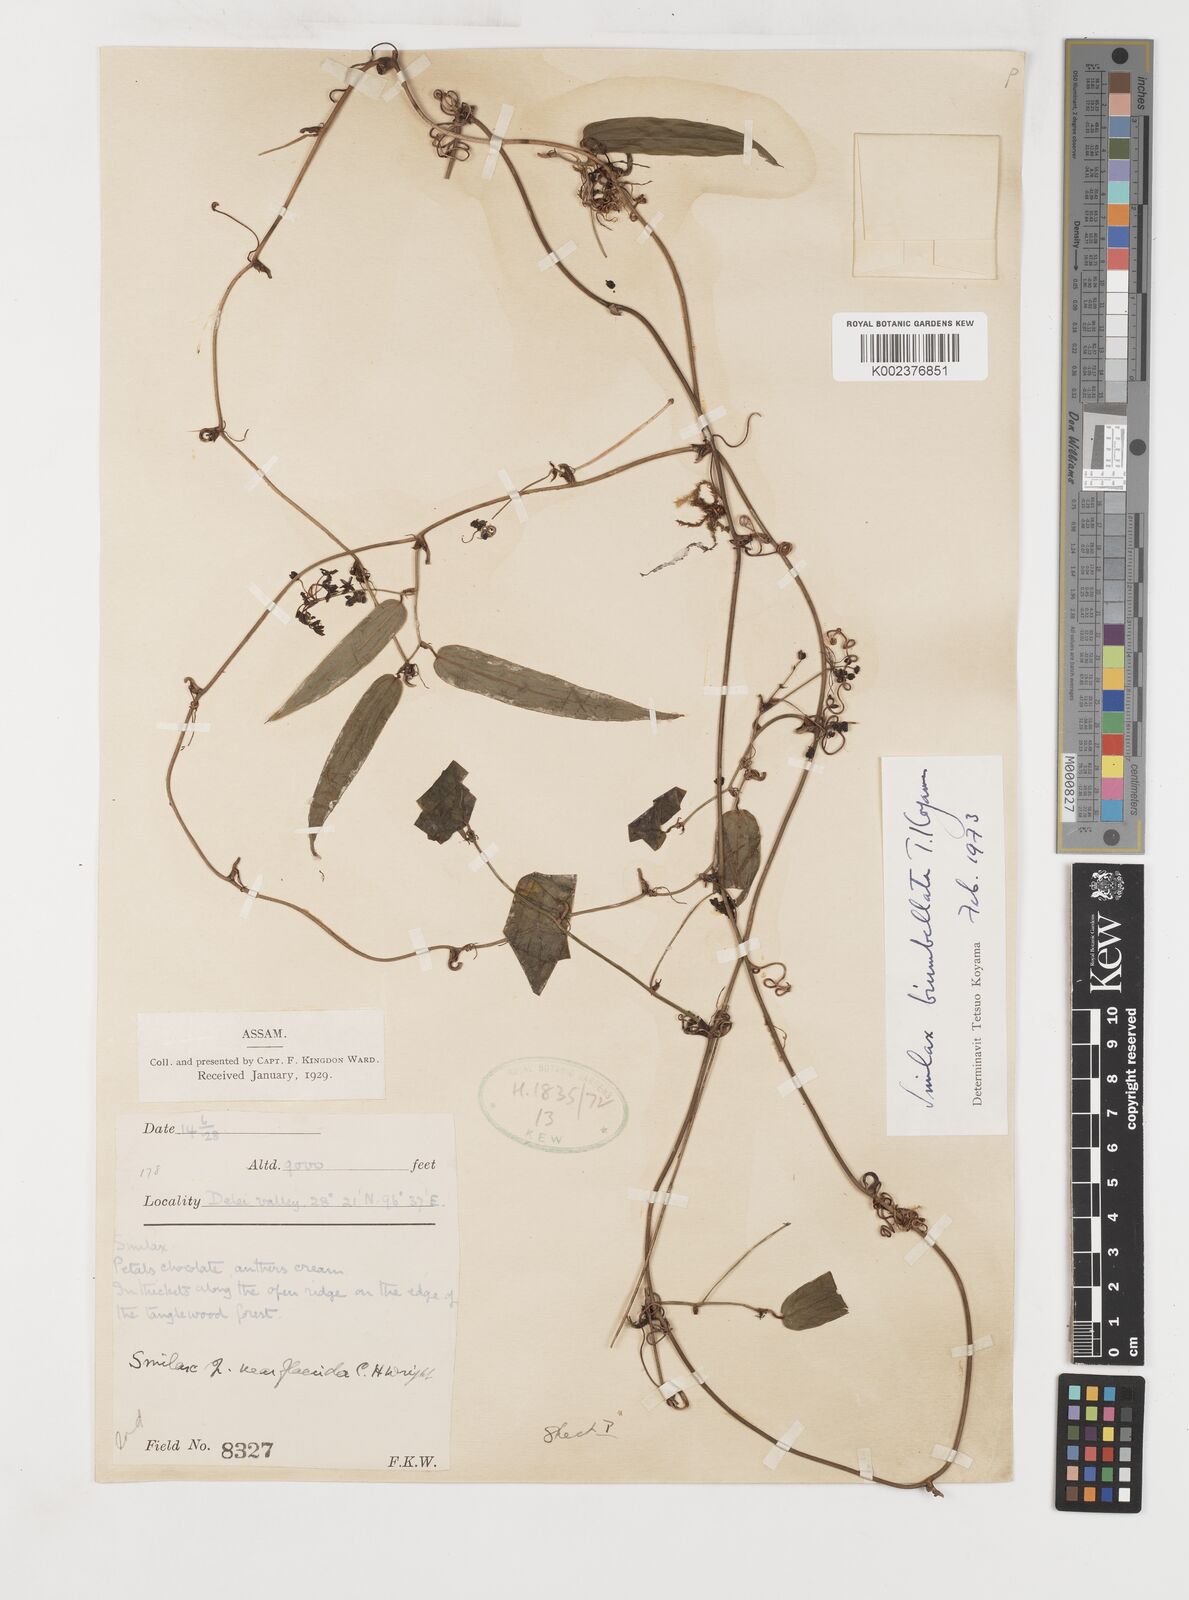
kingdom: Plantae
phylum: Tracheophyta
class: Liliopsida
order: Liliales
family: Smilacaceae
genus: Smilax
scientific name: Smilax biumbellata
